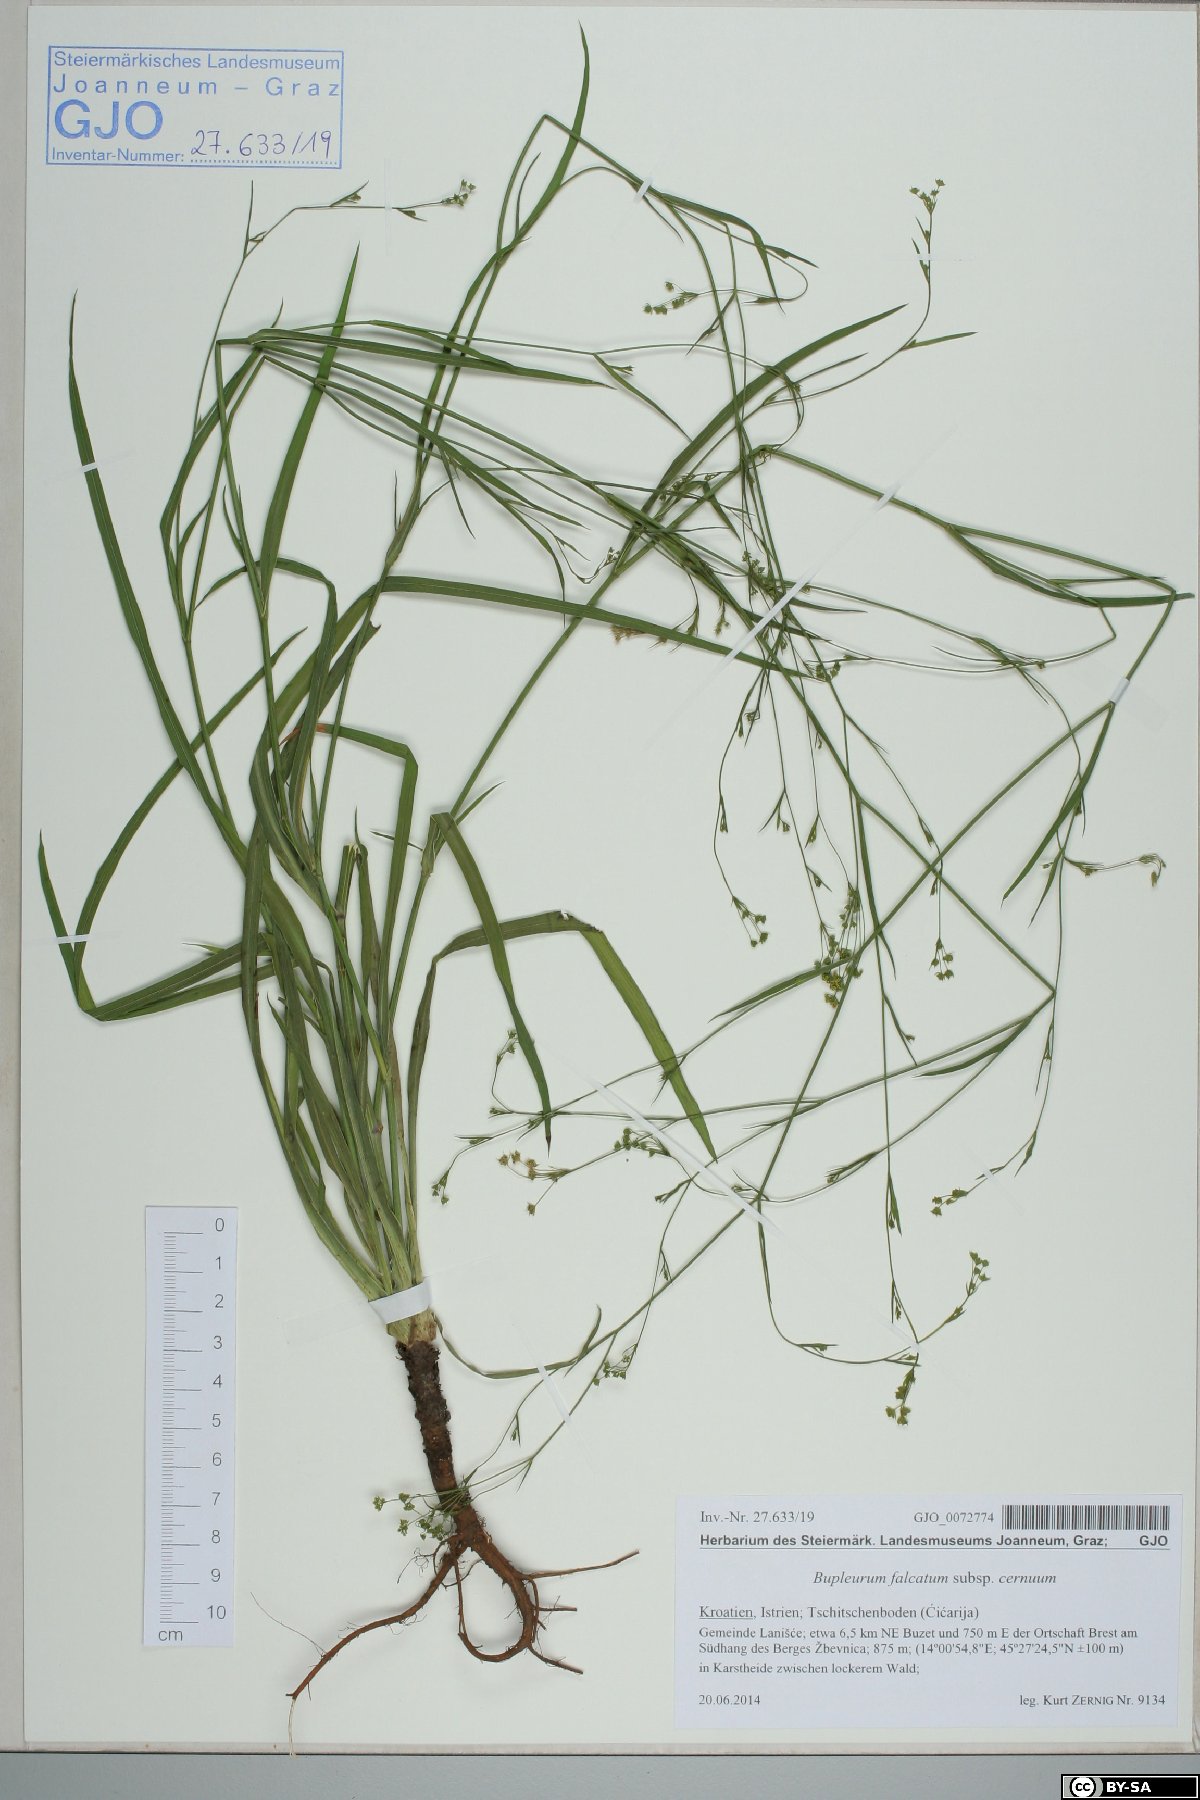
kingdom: Plantae
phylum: Tracheophyta
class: Magnoliopsida
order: Apiales
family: Apiaceae
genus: Bupleurum
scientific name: Bupleurum praealtum
